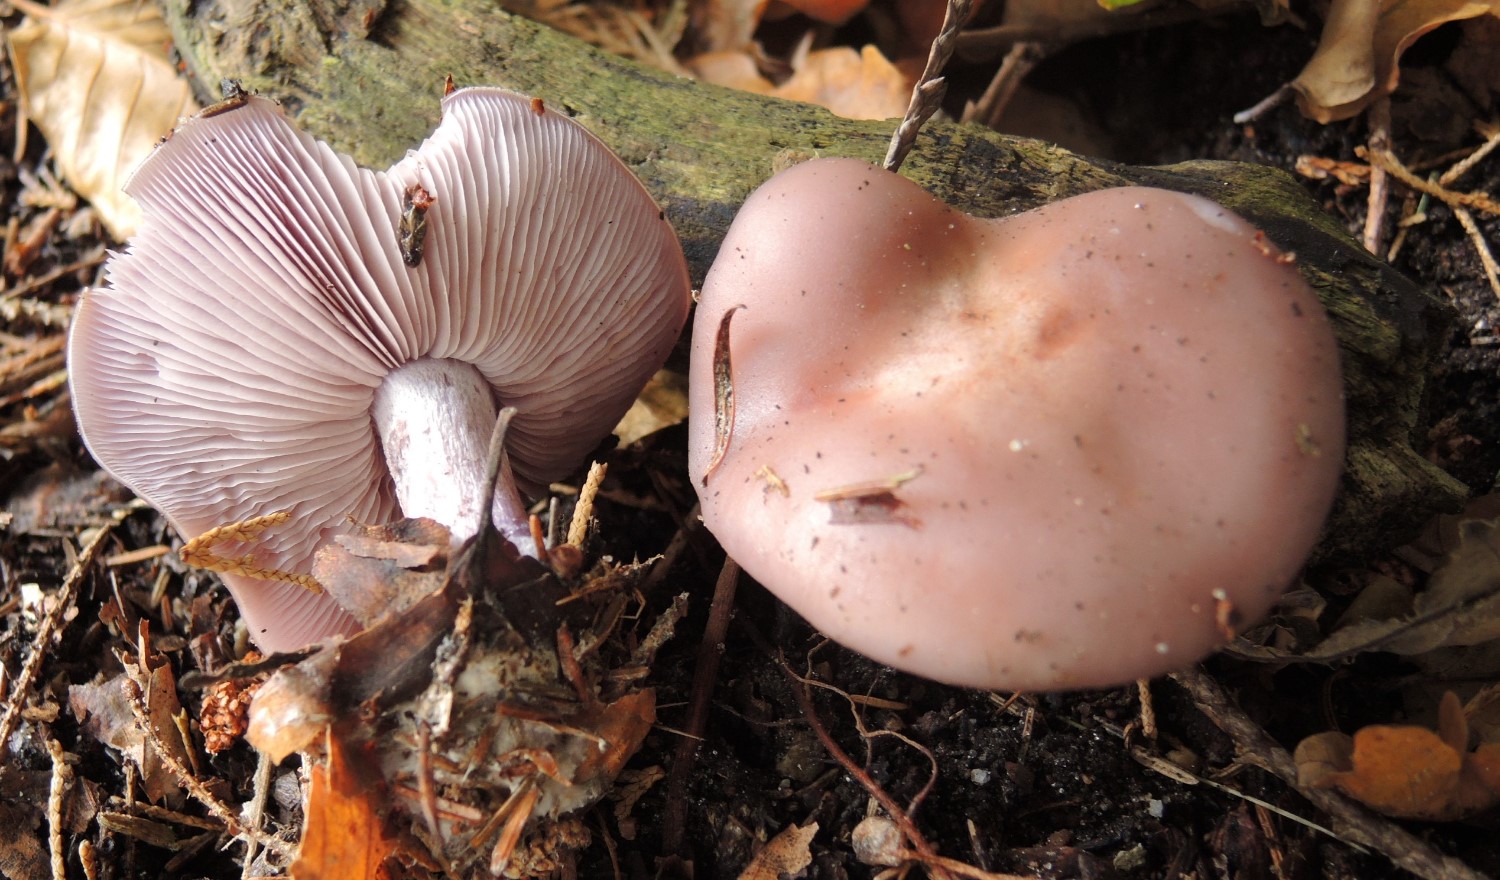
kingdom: Fungi
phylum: Basidiomycota
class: Agaricomycetes
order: Agaricales
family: Tricholomataceae
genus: Lepista
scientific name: Lepista nuda
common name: violet hekseringshat
